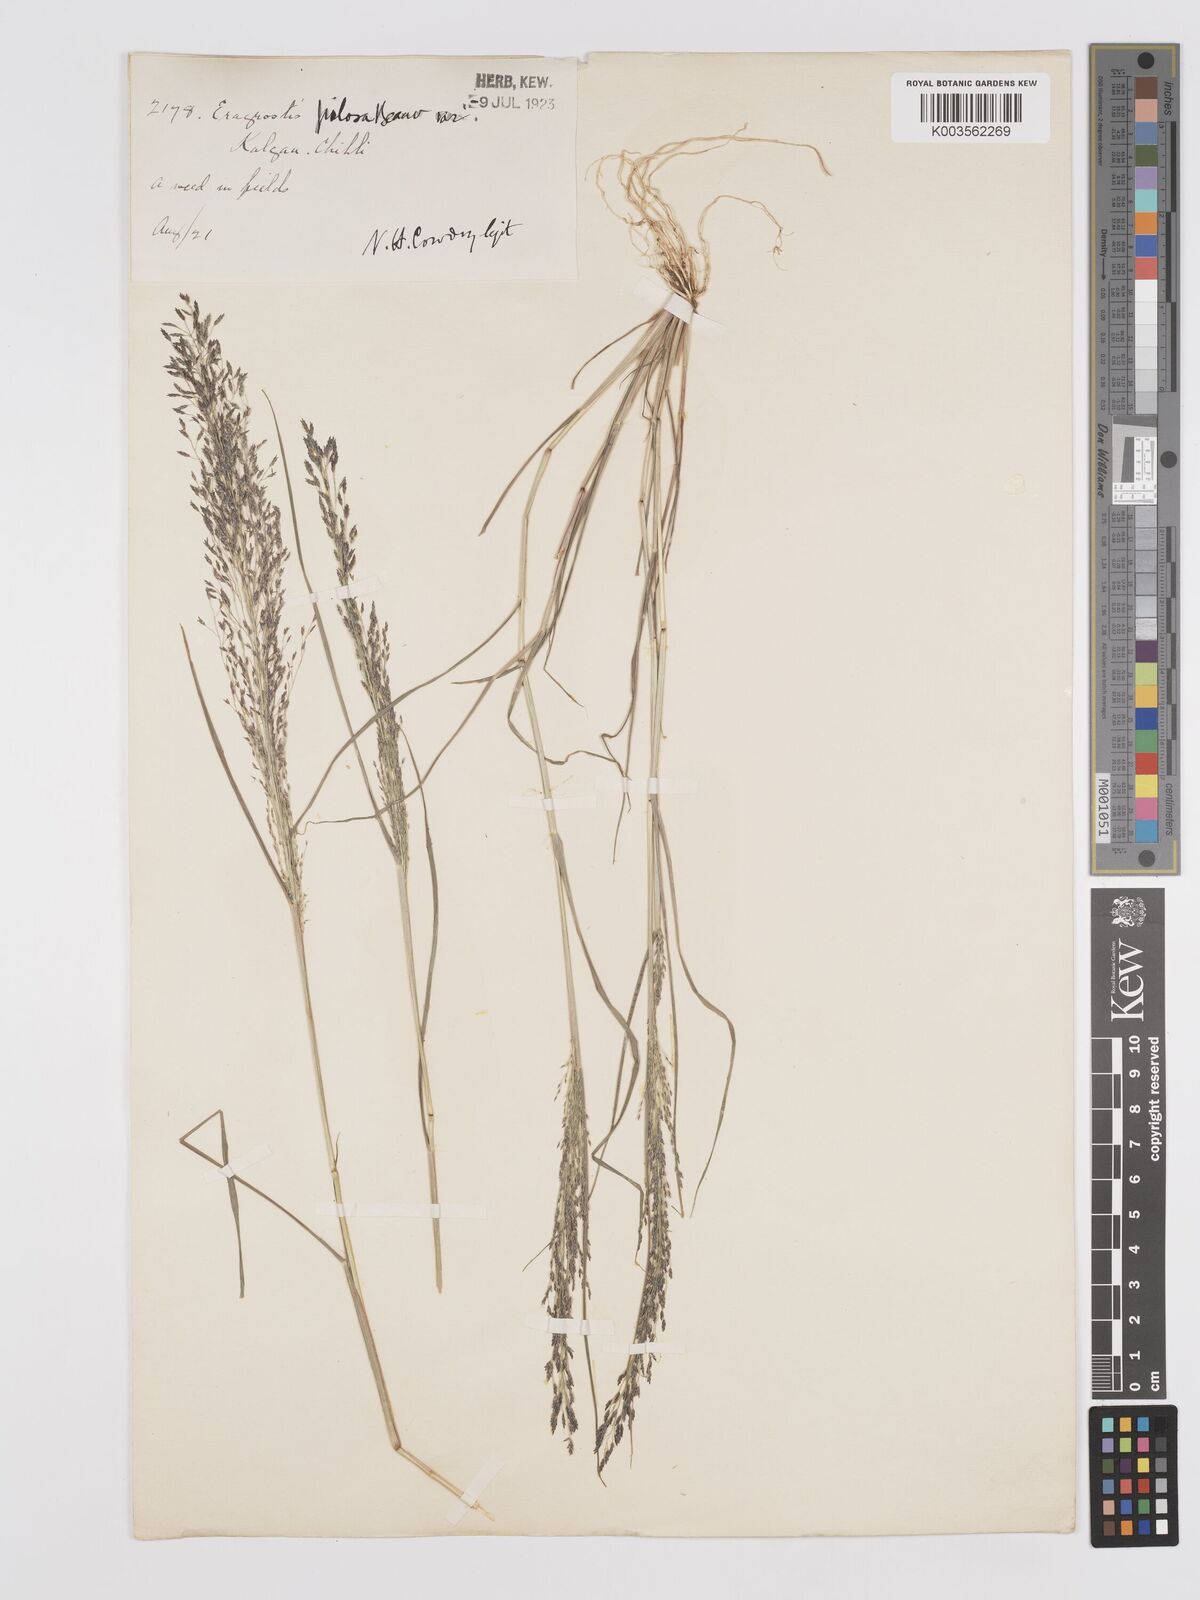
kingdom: Plantae
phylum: Tracheophyta
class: Liliopsida
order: Poales
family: Poaceae
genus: Eragrostis
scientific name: Eragrostis pilosa
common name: Indian lovegrass
